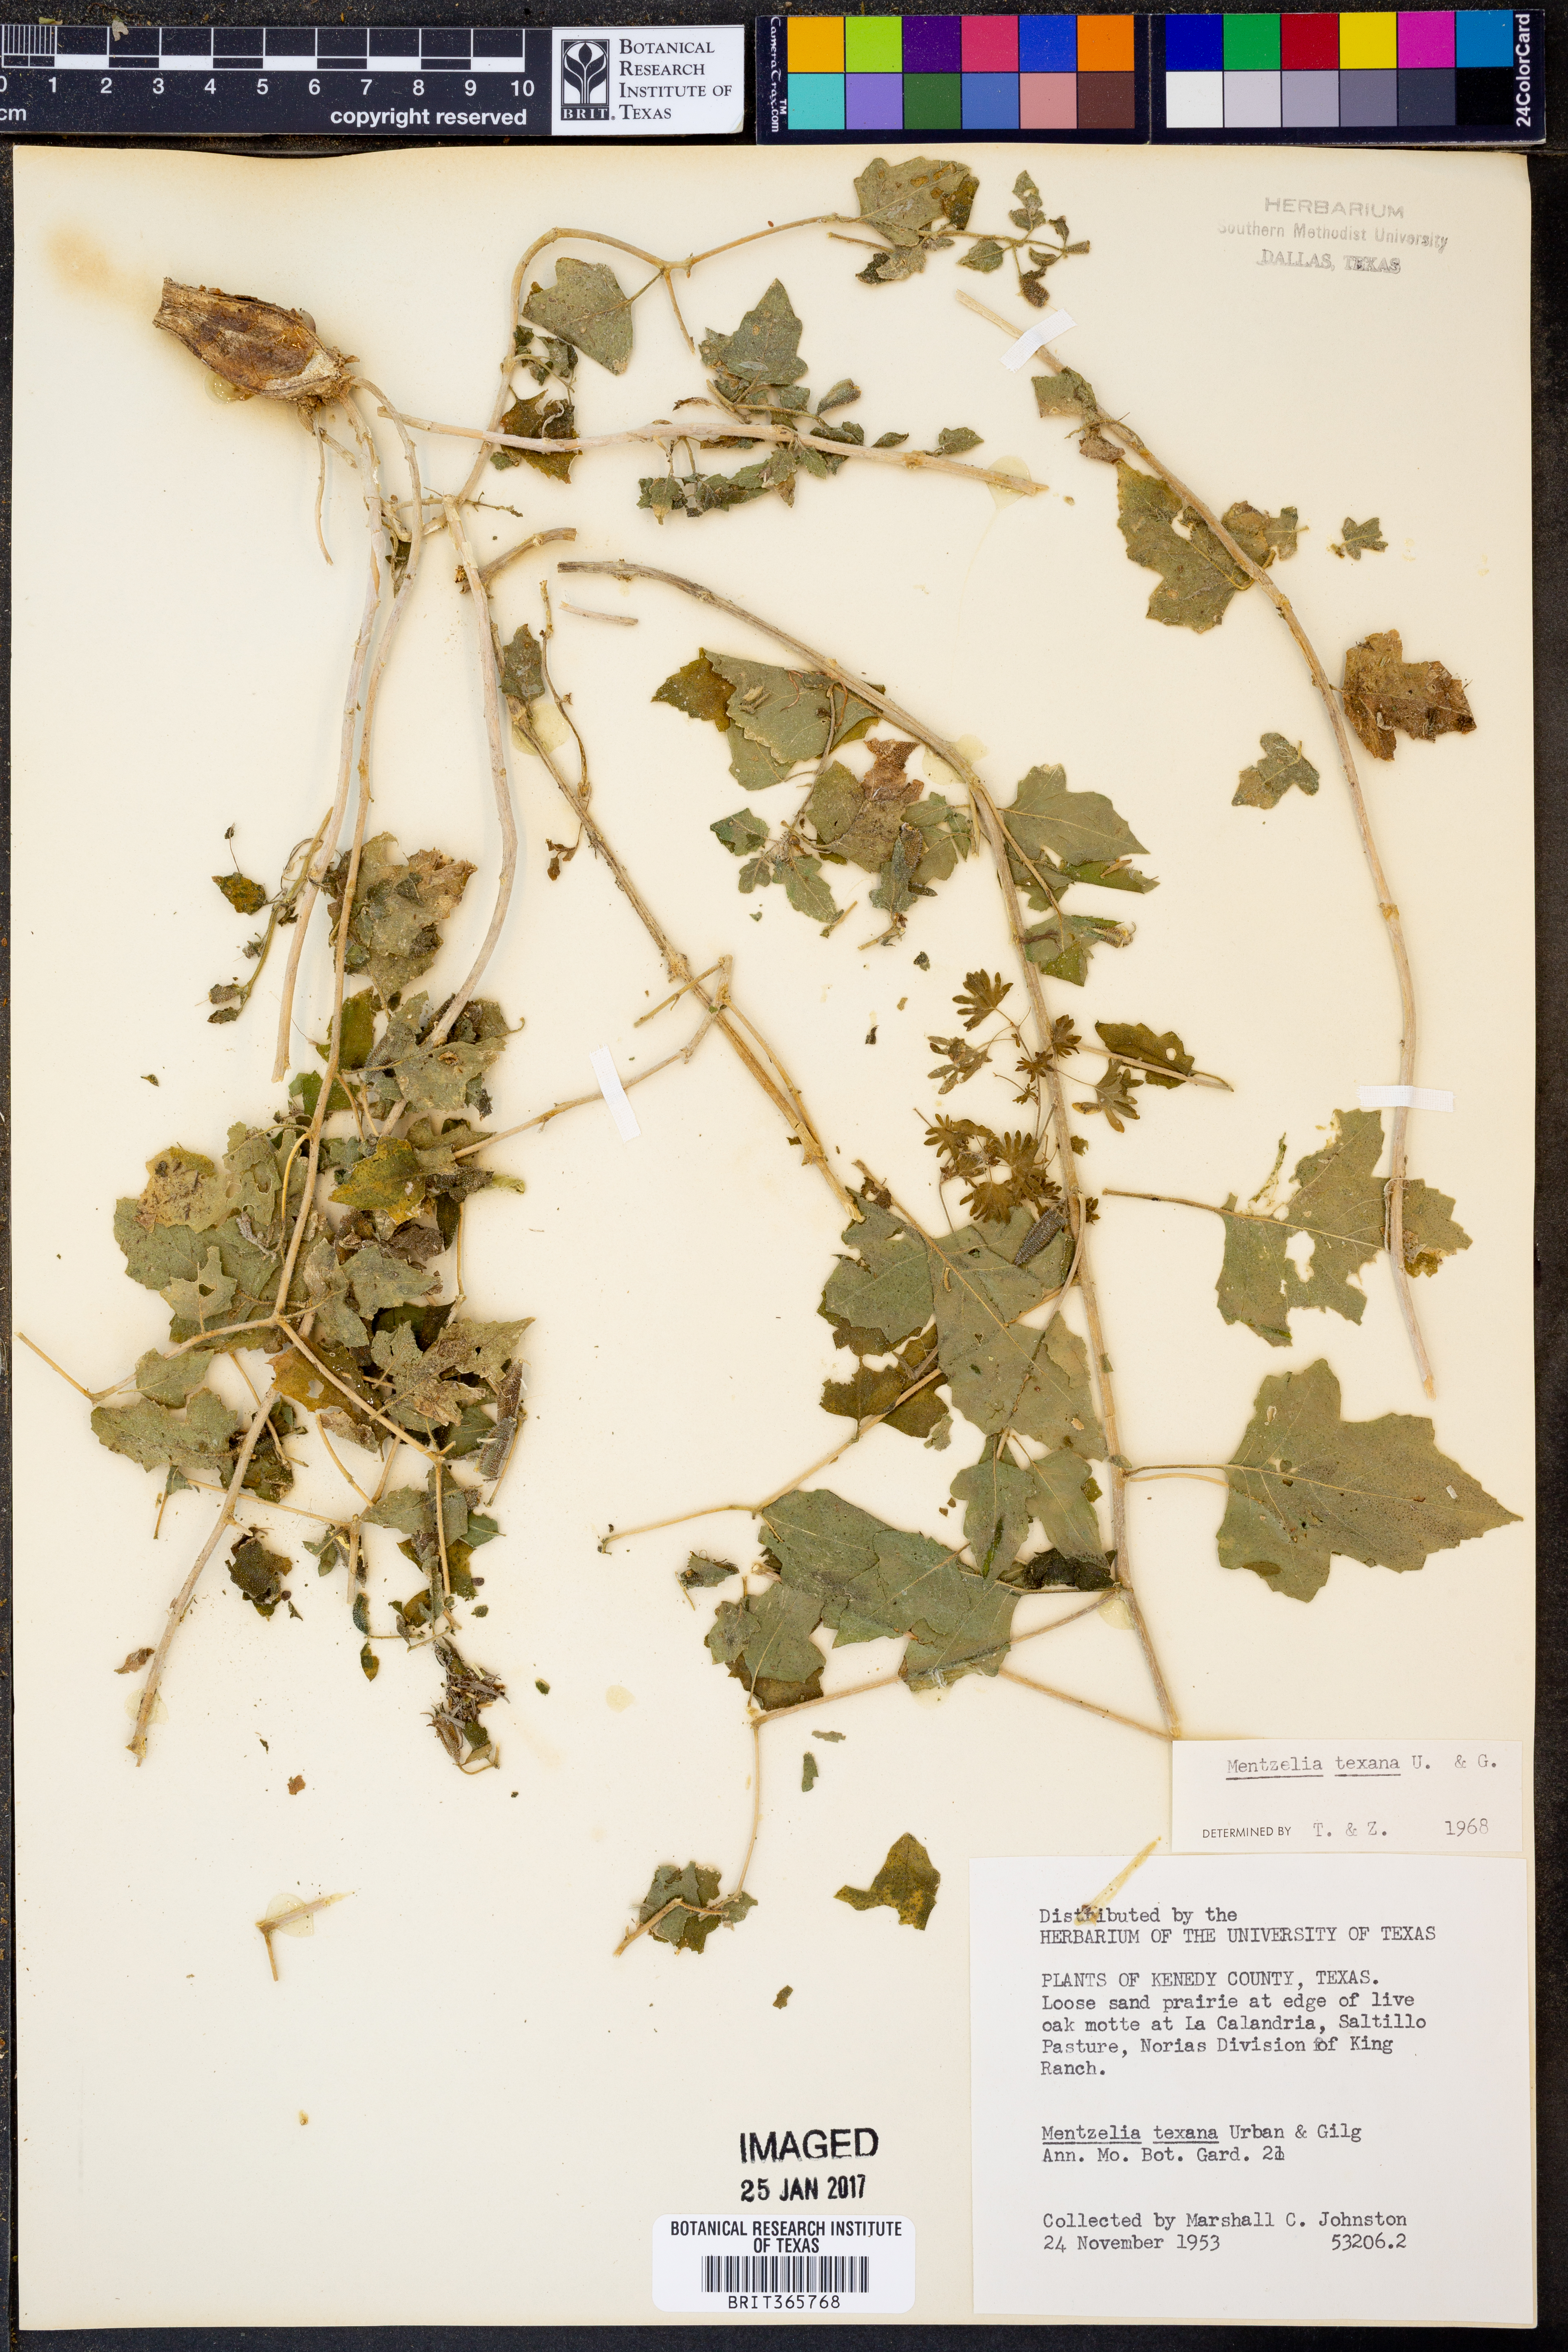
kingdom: Plantae
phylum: Tracheophyta
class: Magnoliopsida
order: Cornales
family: Loasaceae
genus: Mentzelia
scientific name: Mentzelia texana
